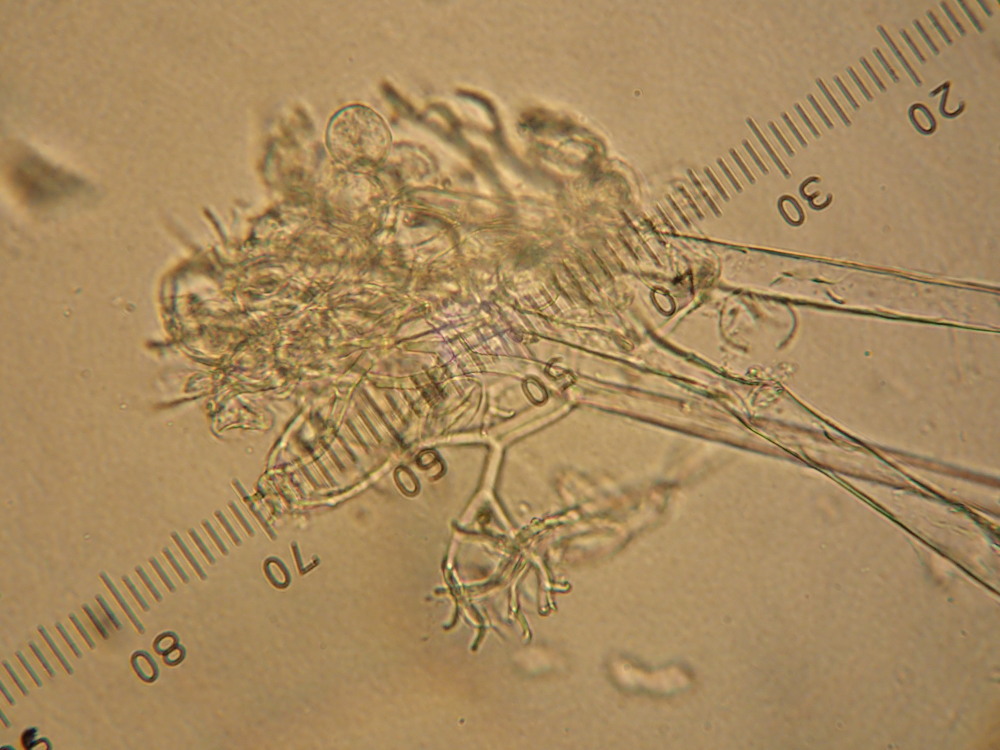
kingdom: Chromista
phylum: Oomycota
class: Peronosporea
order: Peronosporales
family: Peronosporaceae
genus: Hyaloperonospora
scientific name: Hyaloperonospora hesperidis
